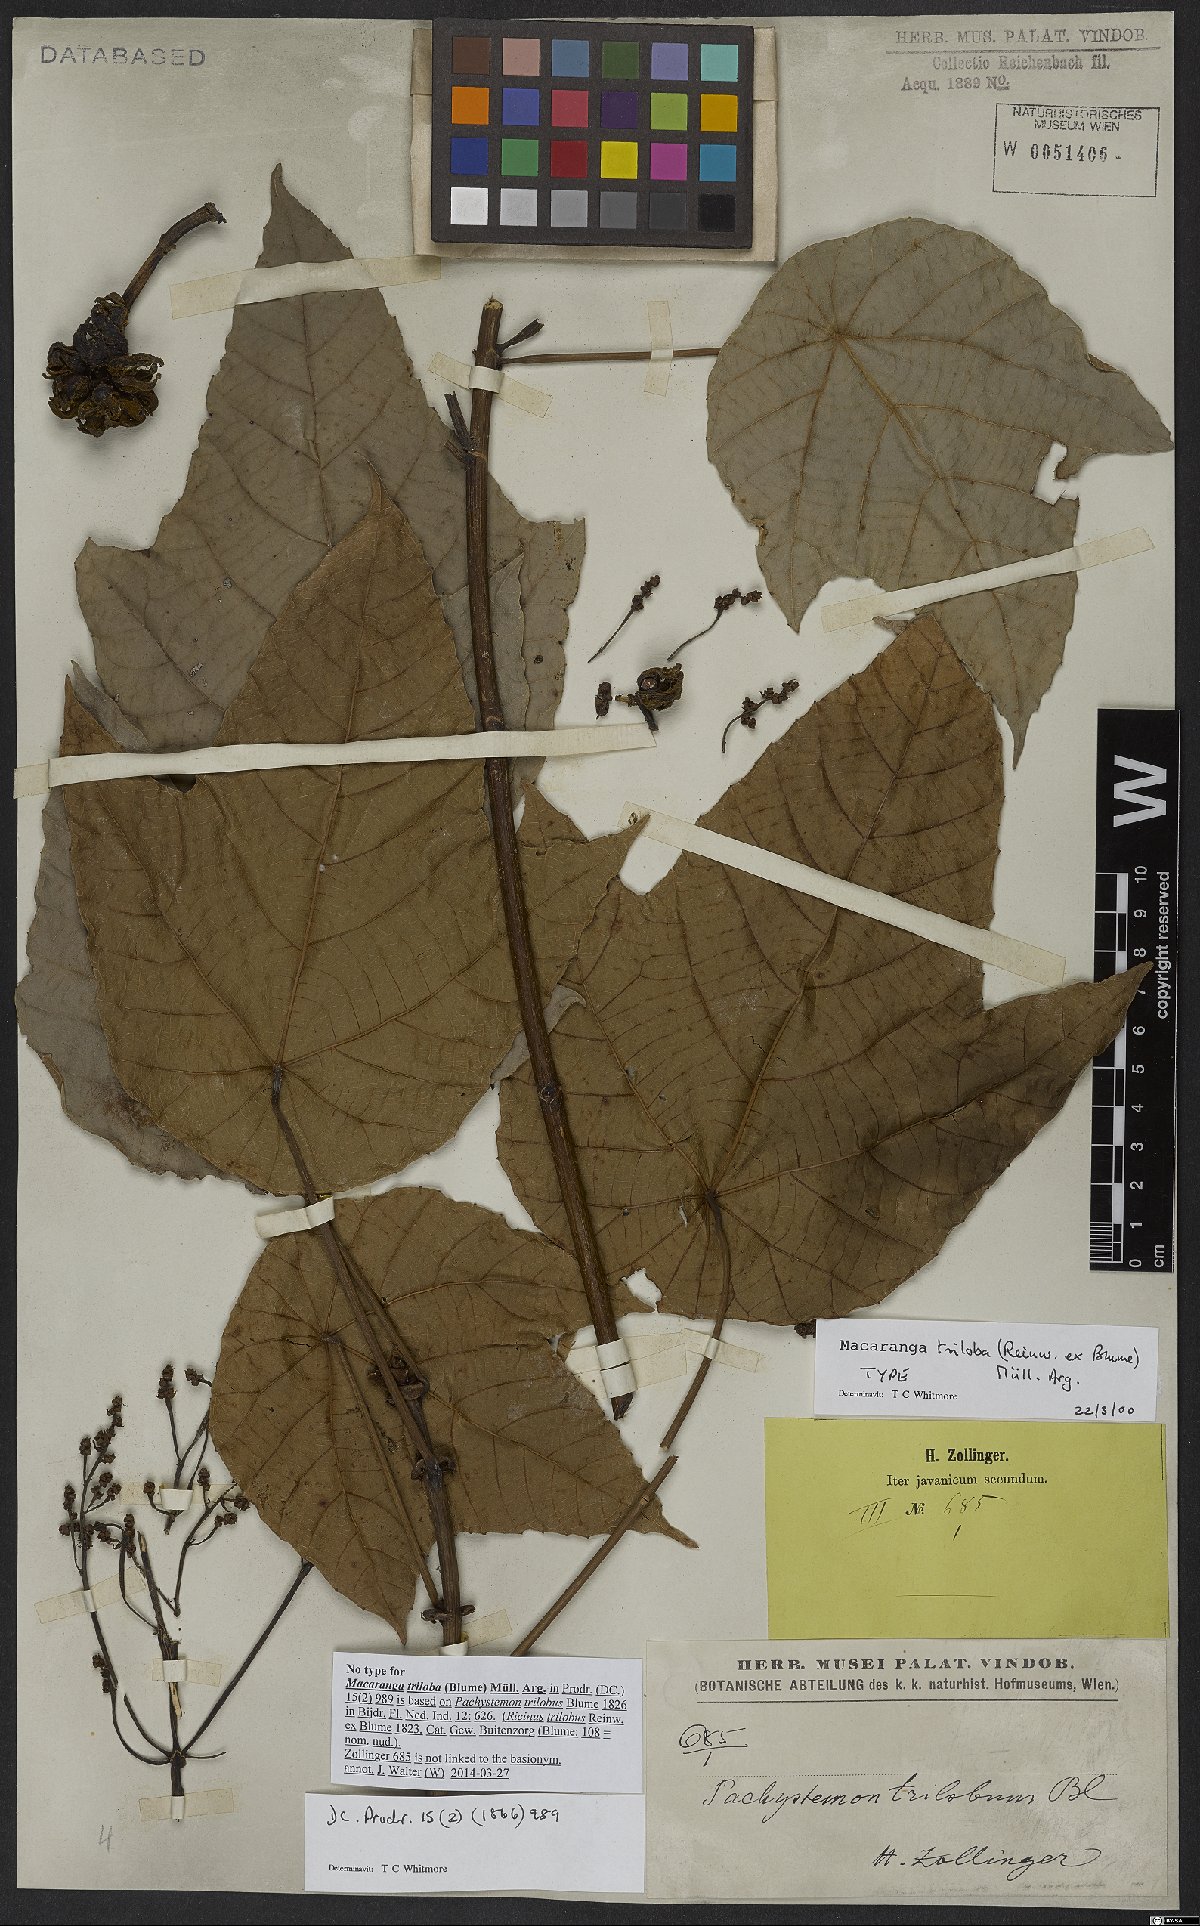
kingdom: Plantae
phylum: Tracheophyta
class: Magnoliopsida
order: Malpighiales
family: Euphorbiaceae
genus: Macaranga
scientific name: Macaranga triloba
